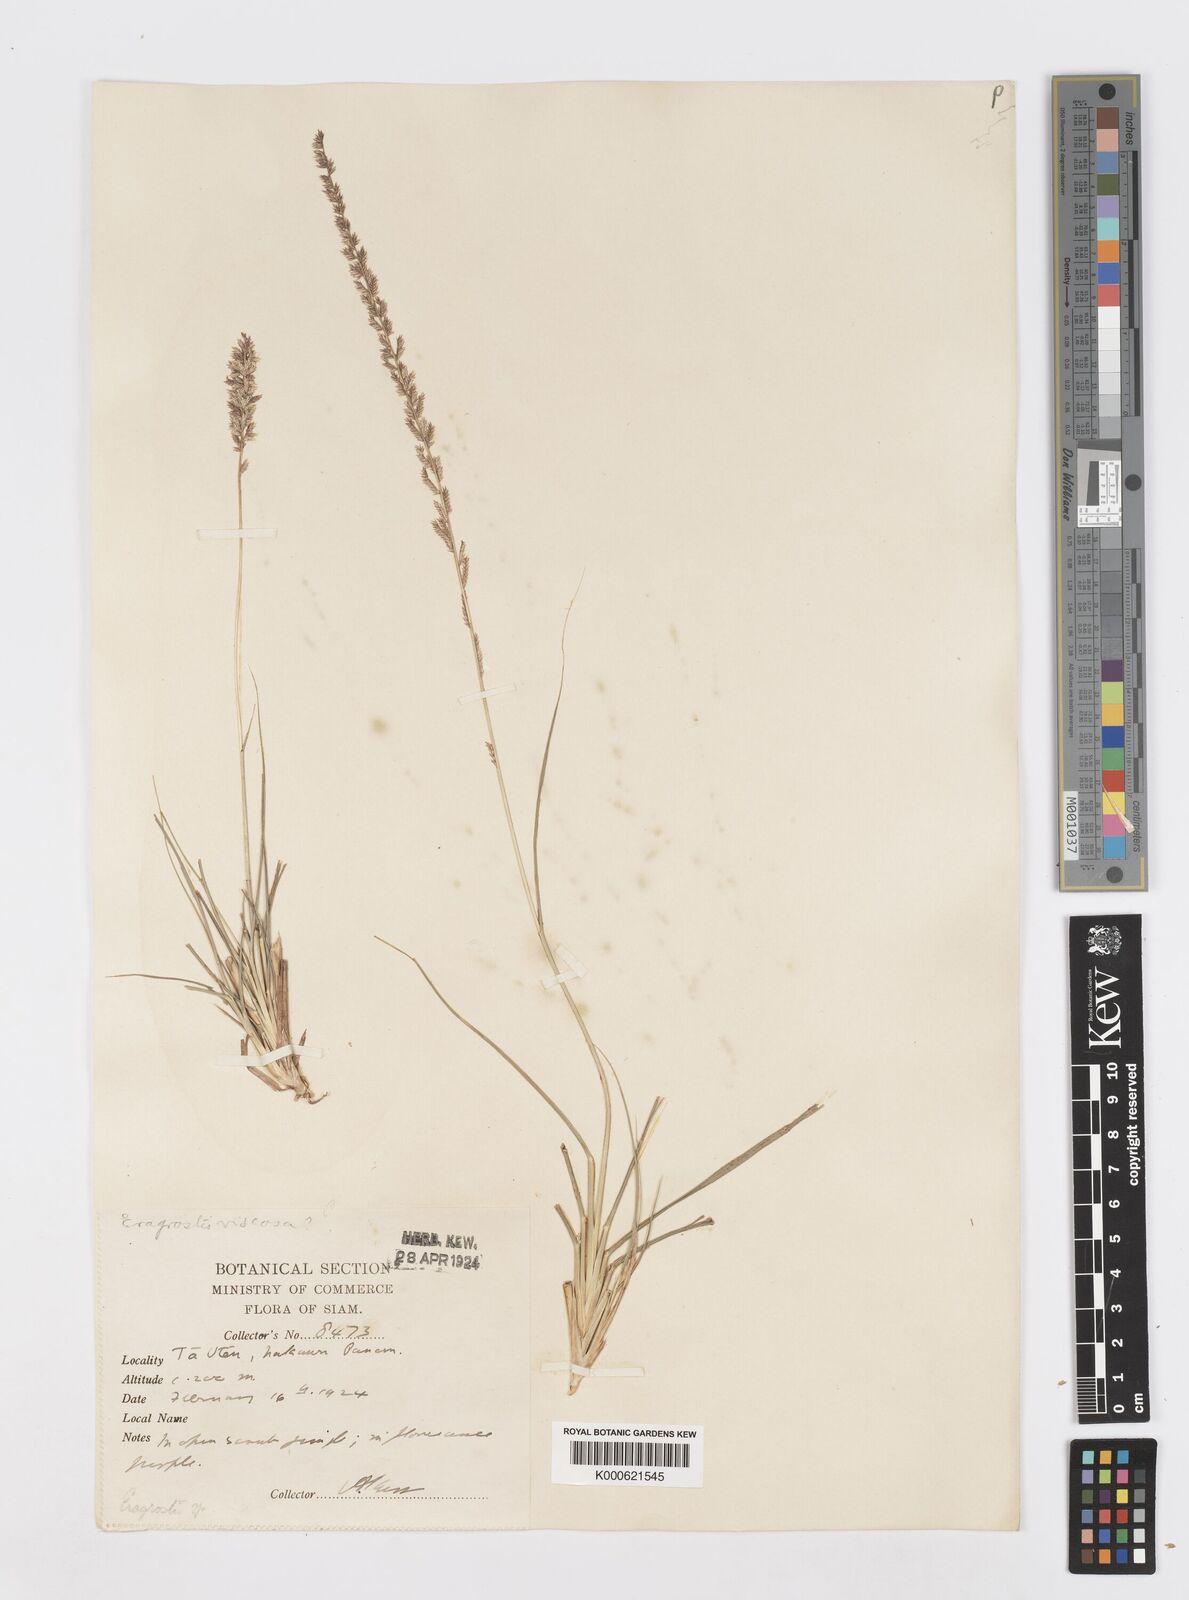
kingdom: Plantae
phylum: Tracheophyta
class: Liliopsida
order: Poales
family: Poaceae
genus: Desmostachya
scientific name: Desmostachya bipinnata
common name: Crowfoot grass
